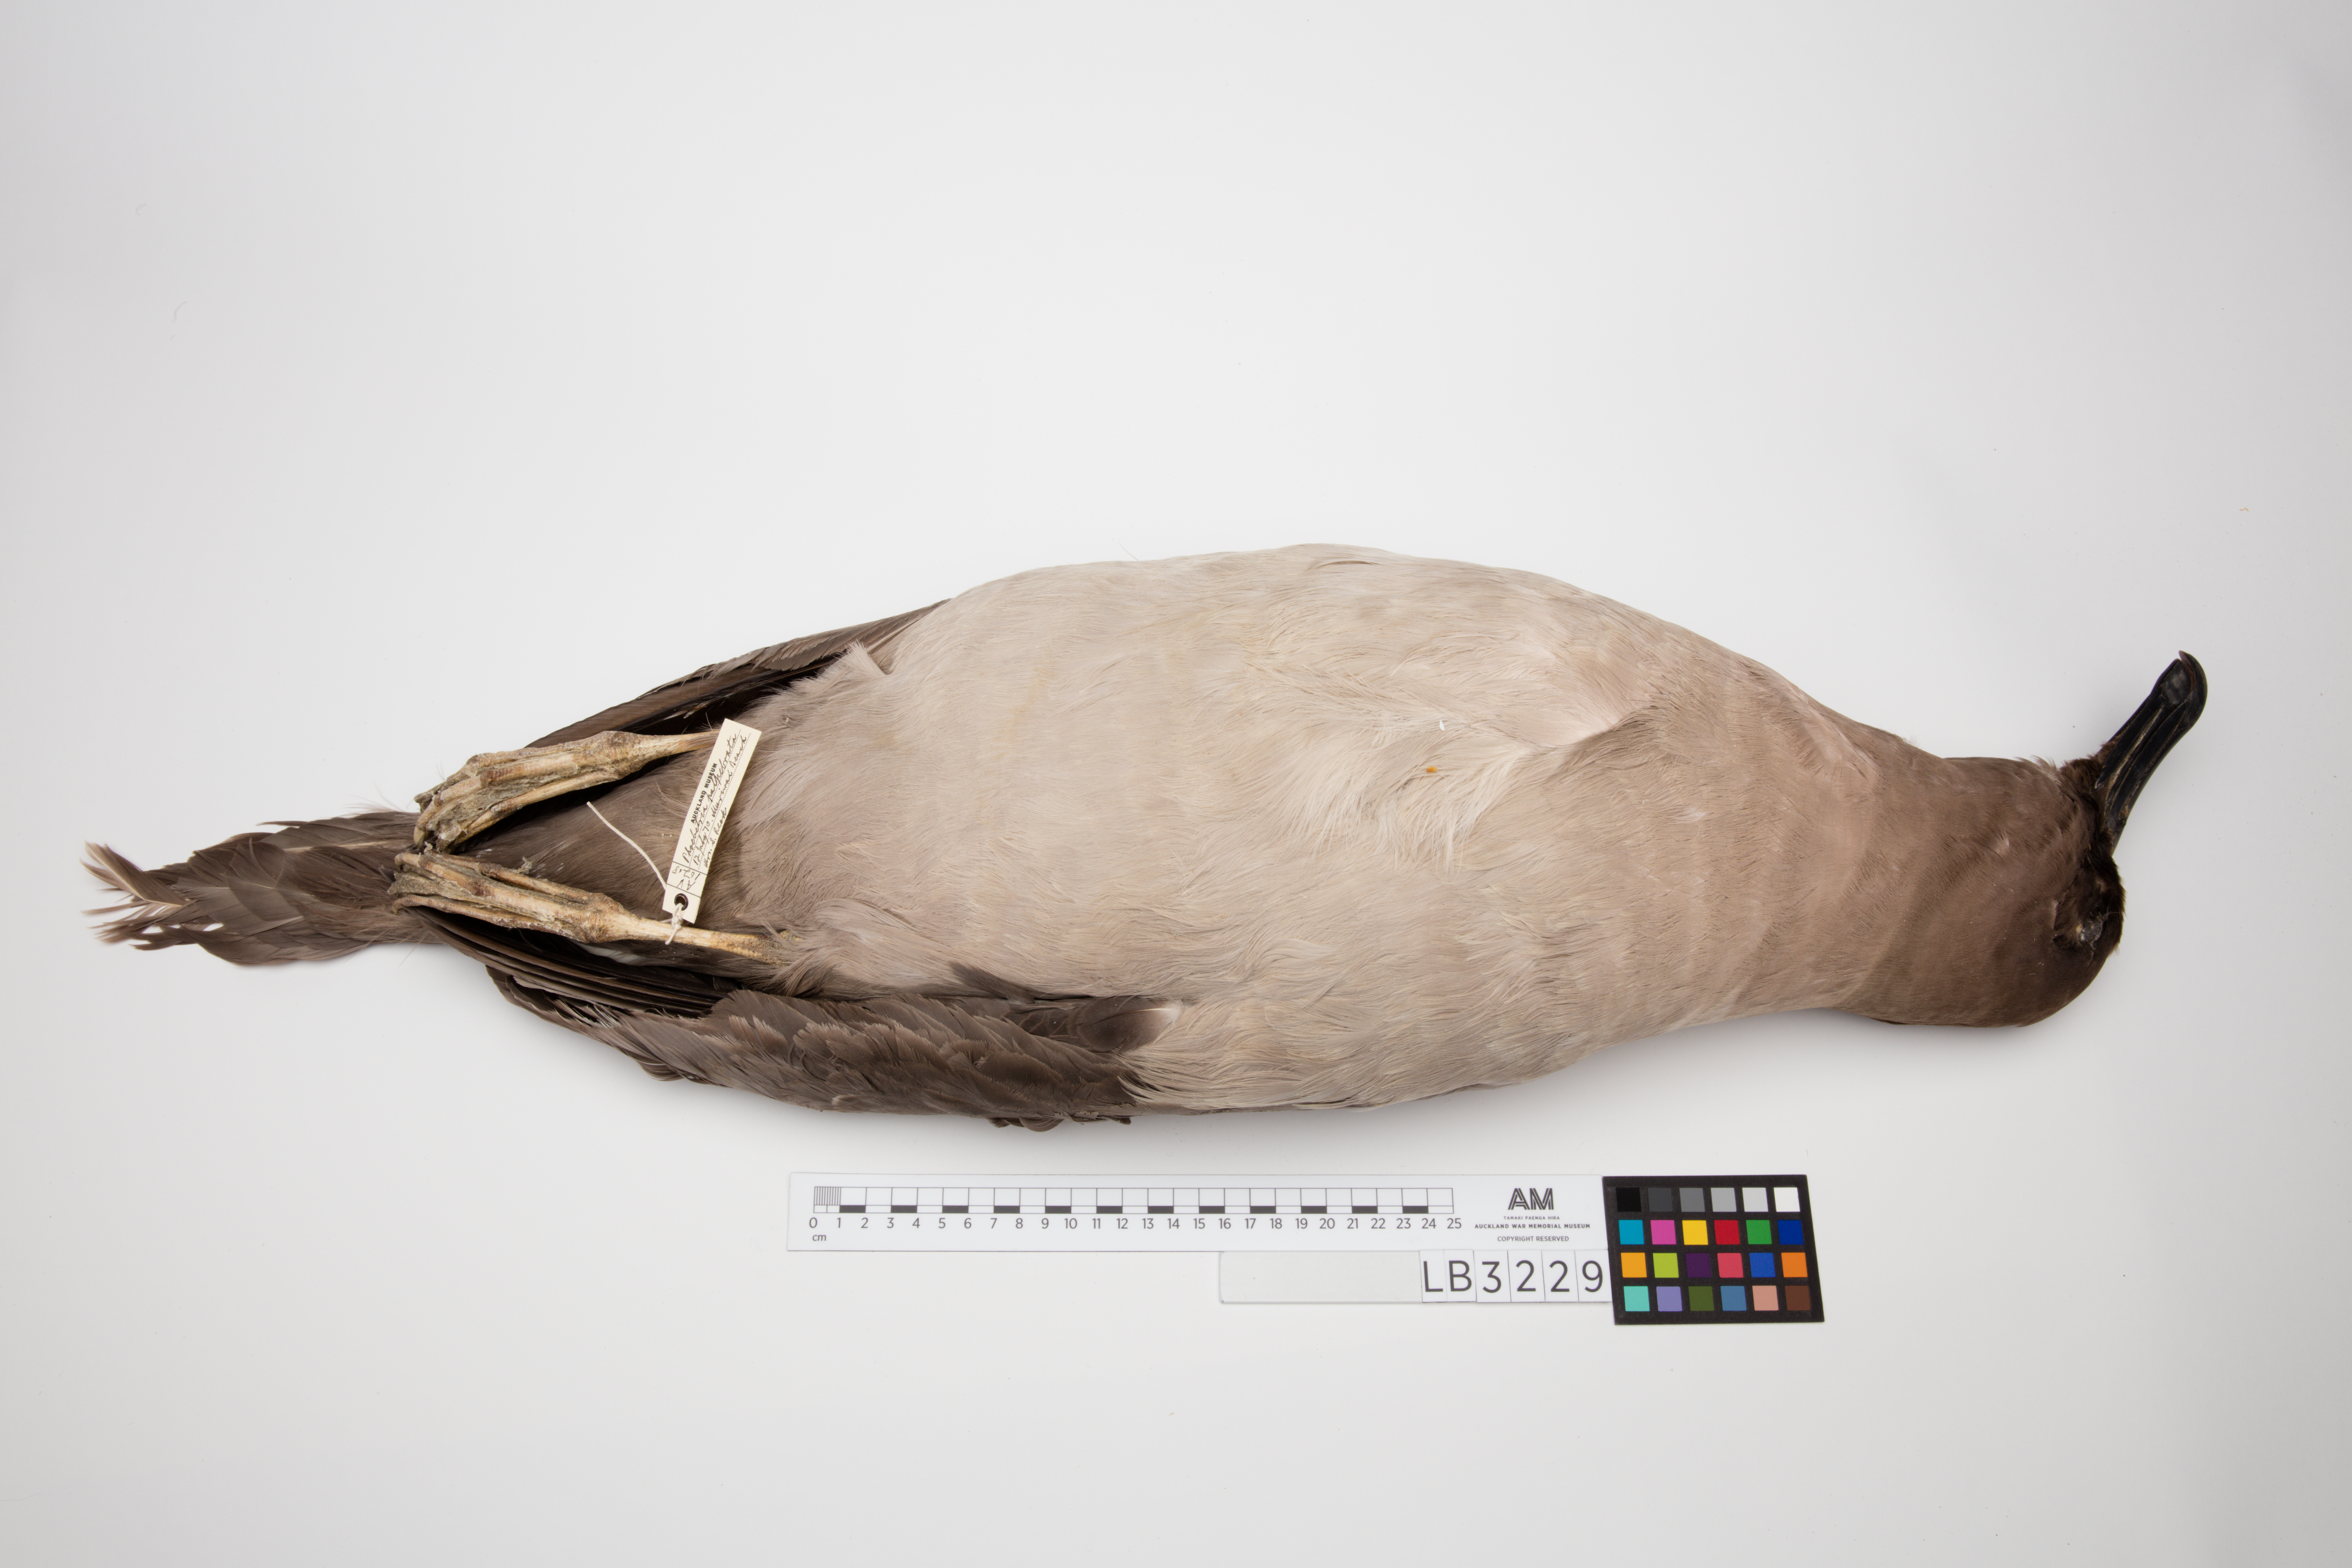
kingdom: Animalia
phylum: Chordata
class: Aves
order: Procellariiformes
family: Diomedeidae
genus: Phoebetria
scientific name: Phoebetria palpebrata
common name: Light-mantled albatross
